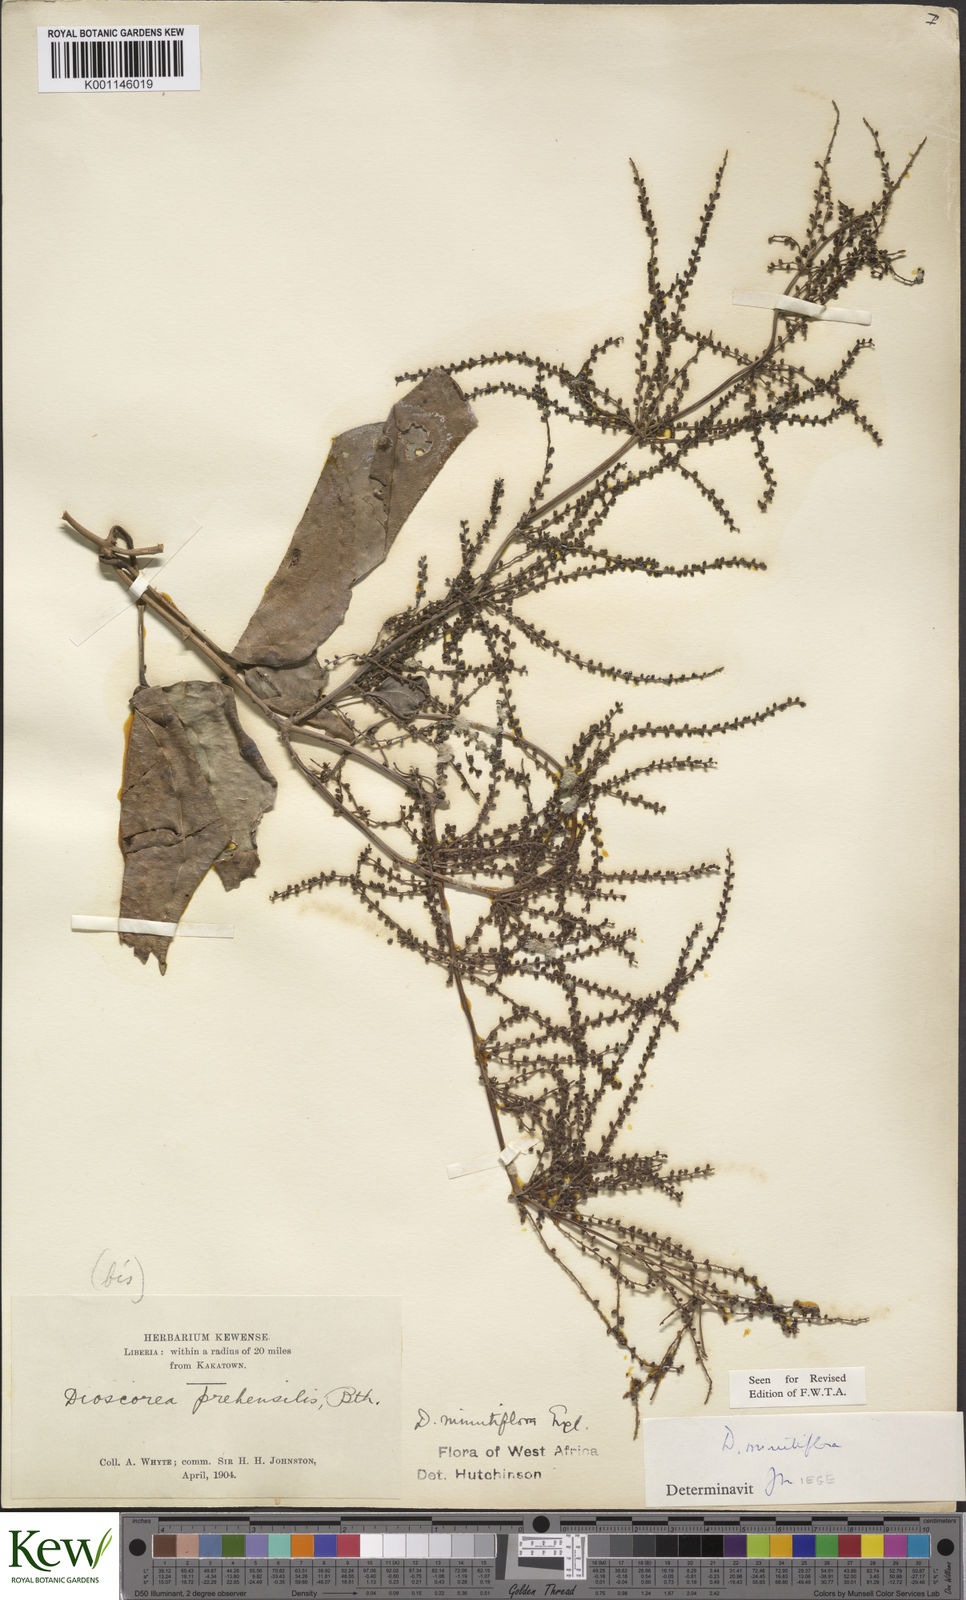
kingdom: Plantae
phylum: Tracheophyta
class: Liliopsida
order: Dioscoreales
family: Dioscoreaceae
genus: Dioscorea
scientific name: Dioscorea minutiflora
